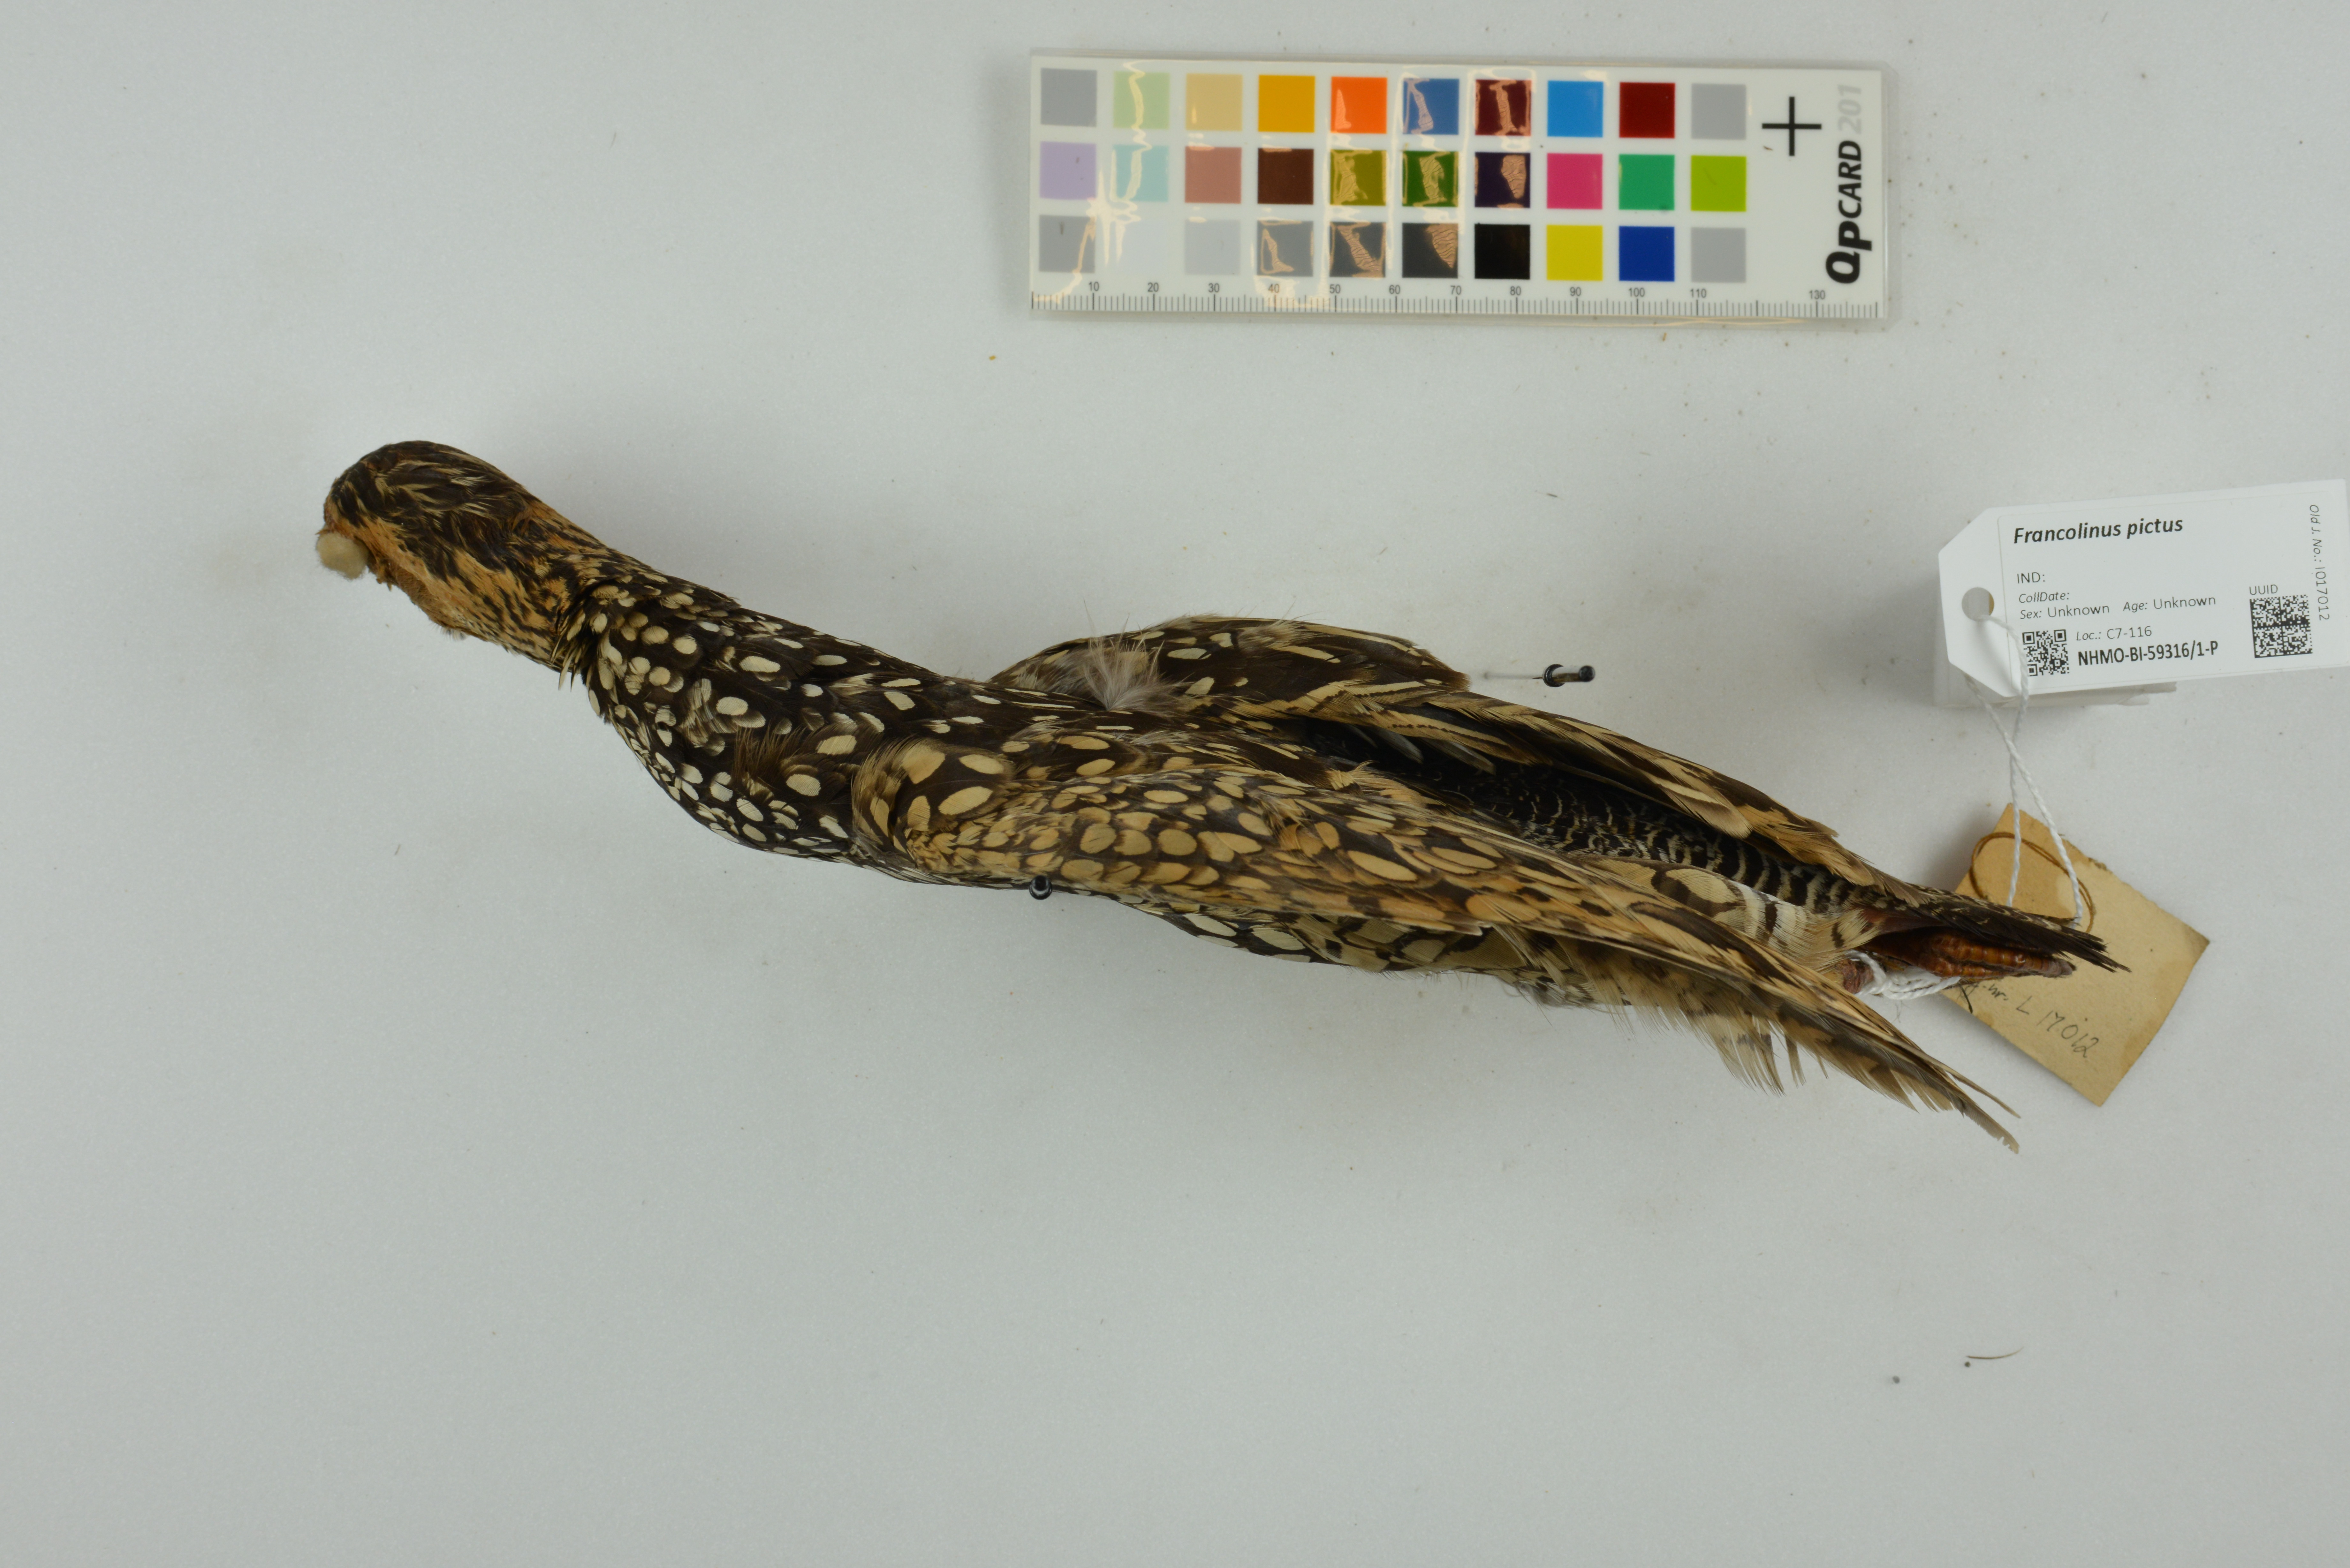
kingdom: Animalia
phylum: Chordata
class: Aves
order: Galliformes
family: Phasianidae
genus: Francolinus
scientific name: Francolinus pictus
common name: Painted francolin
